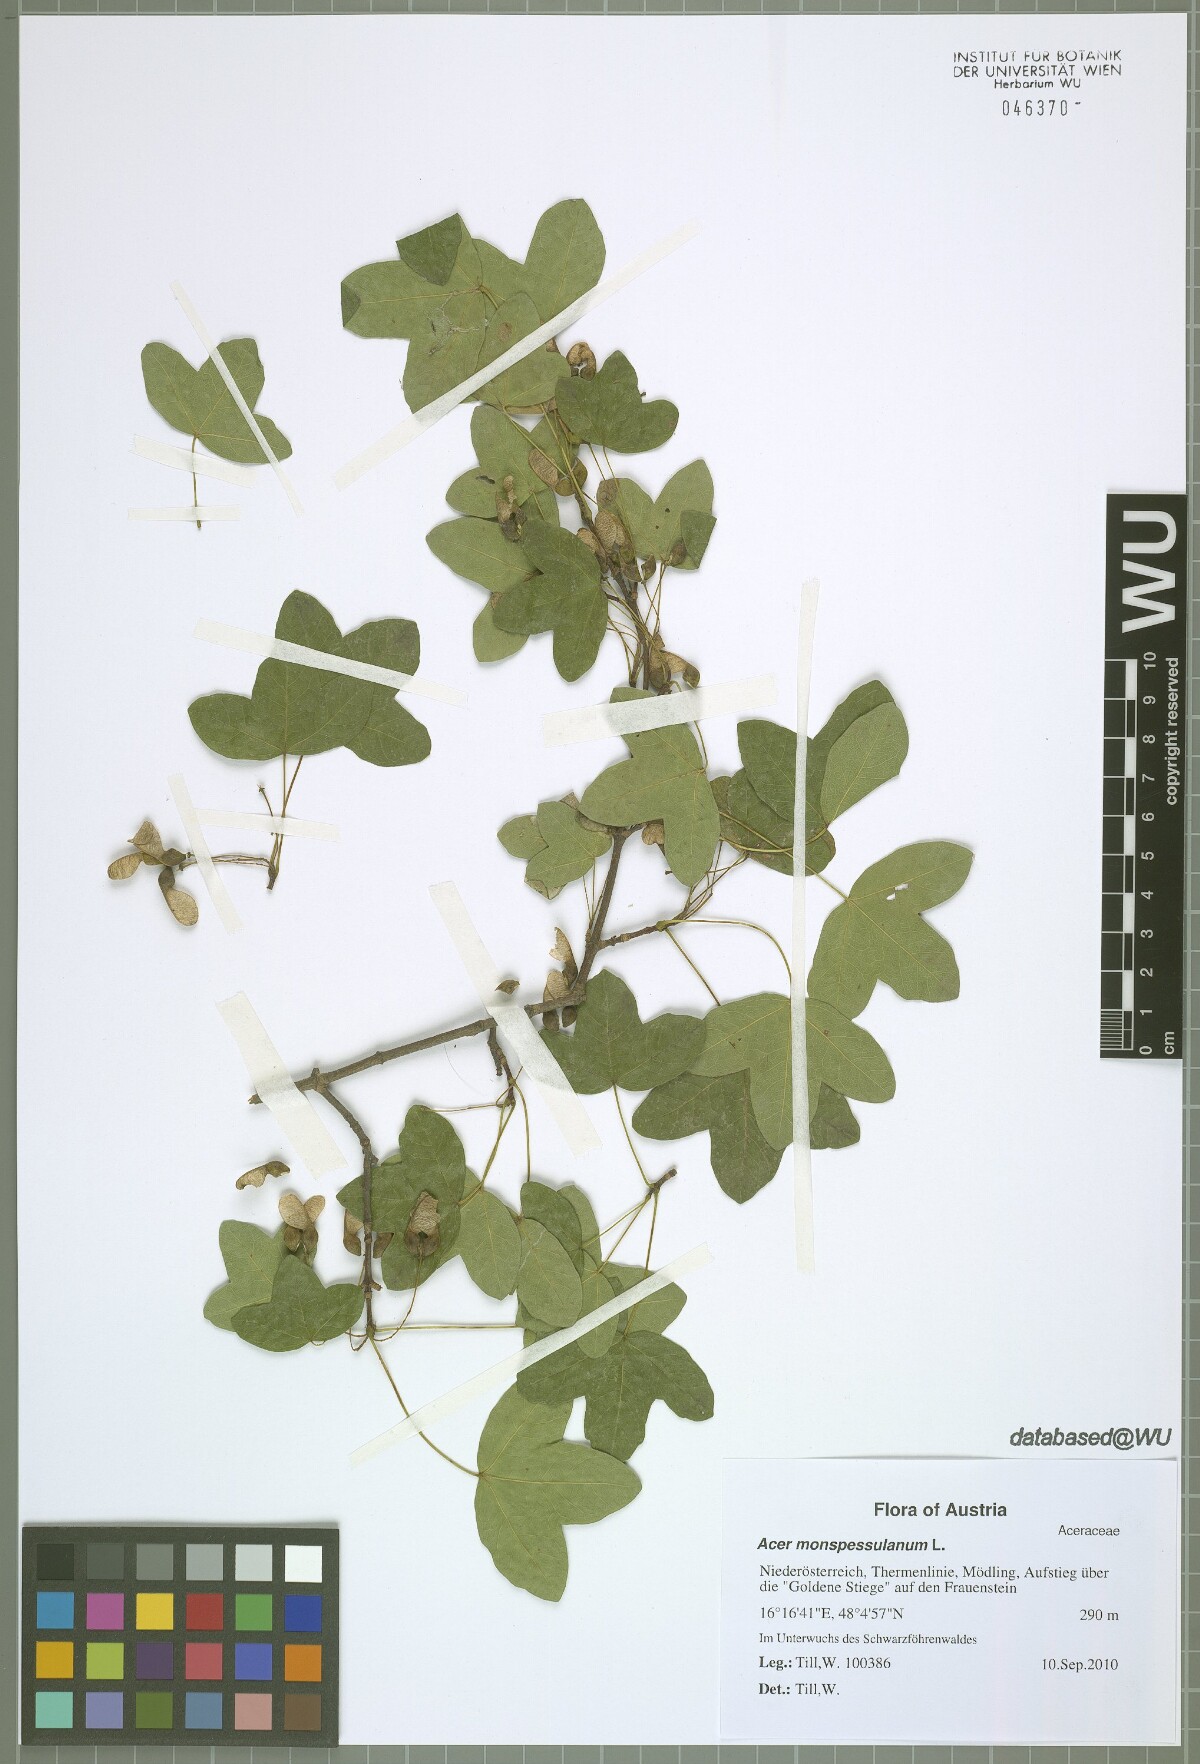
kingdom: Plantae
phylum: Tracheophyta
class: Magnoliopsida
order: Sapindales
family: Sapindaceae
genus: Acer
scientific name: Acer monspessulanum
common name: Montpellier maple
